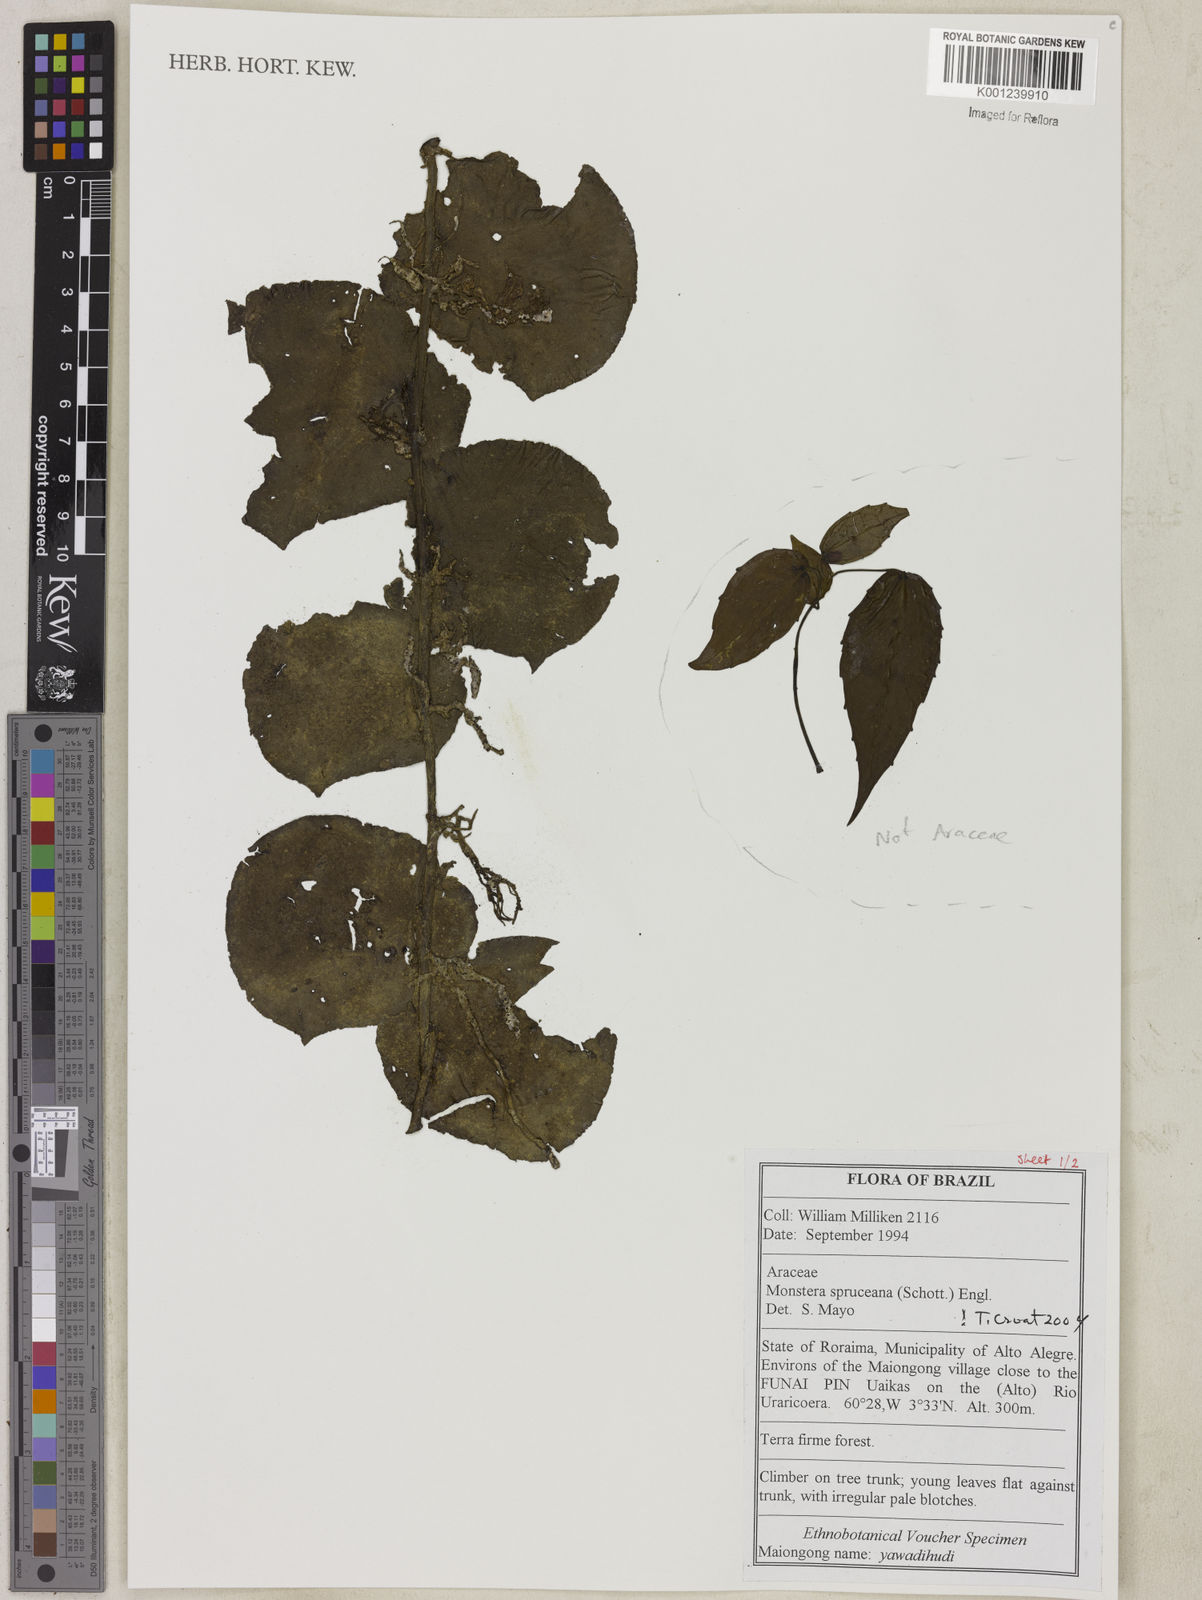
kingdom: Plantae
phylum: Tracheophyta
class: Liliopsida
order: Alismatales
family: Araceae
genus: Monstera
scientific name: Monstera spruceana
